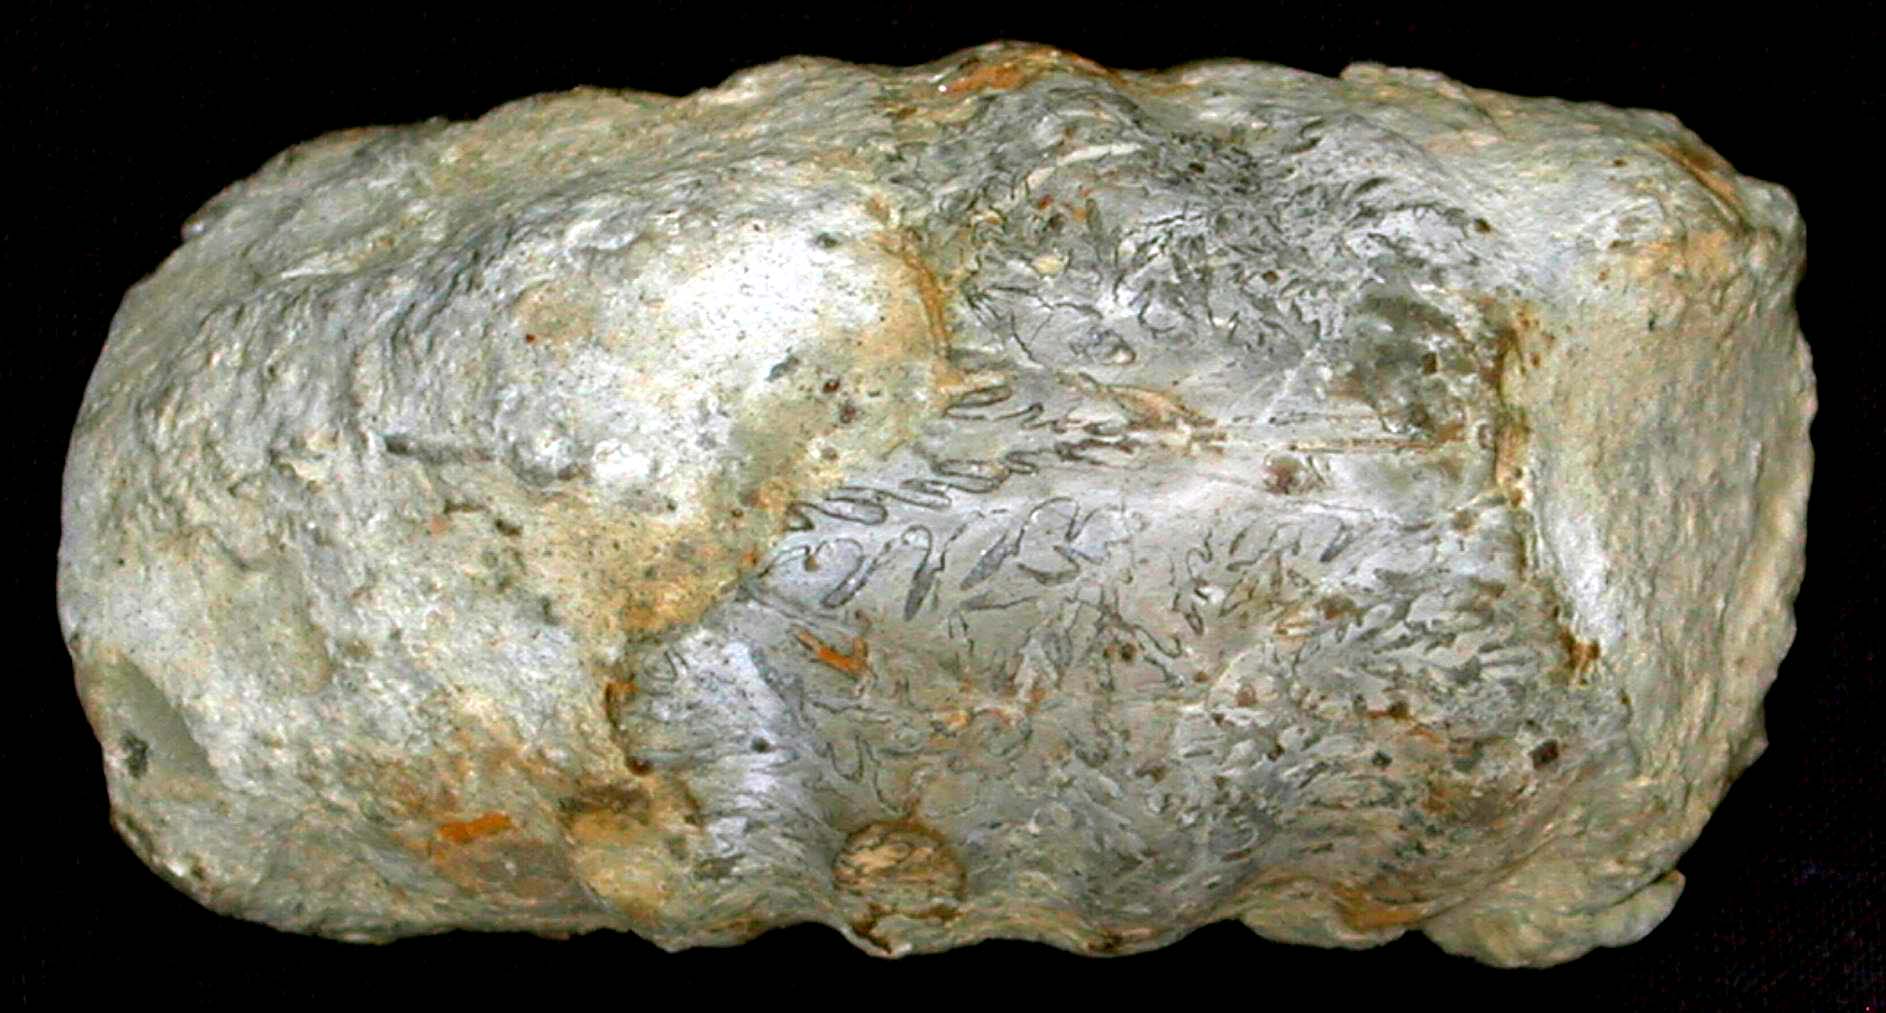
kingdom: Animalia
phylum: Mollusca
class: Cephalopoda
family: Eoderoceratidae
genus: Xipheroceras
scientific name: Xipheroceras
